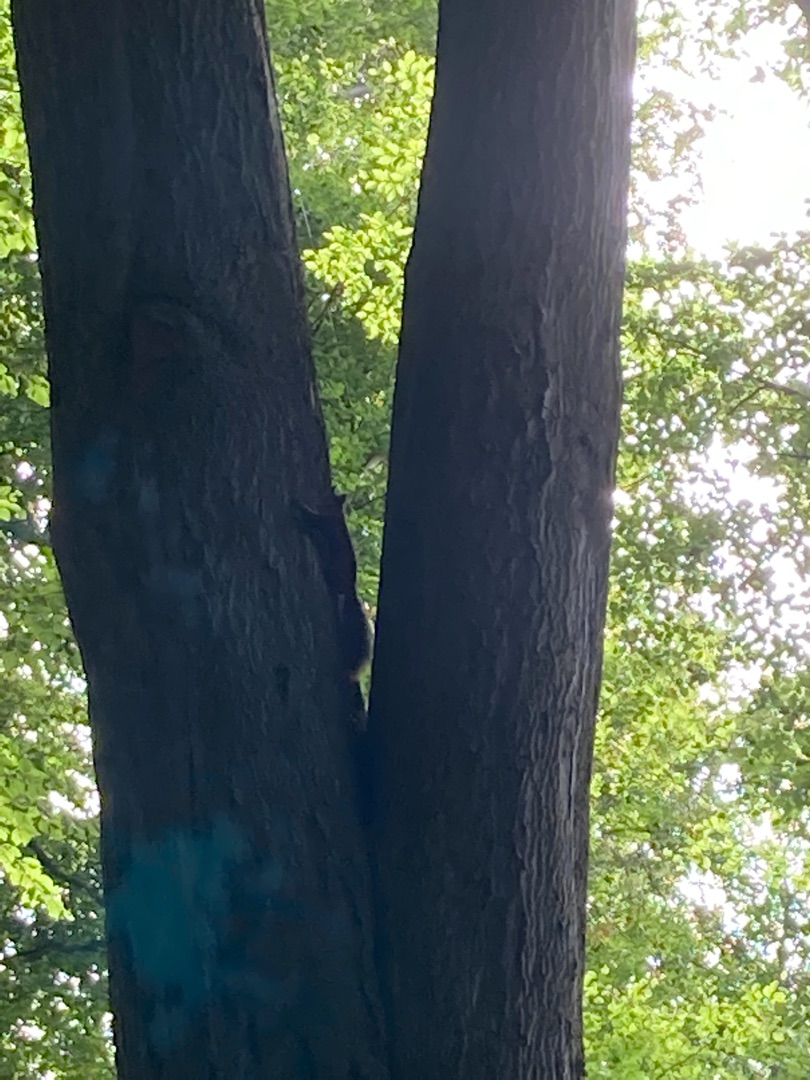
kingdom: Animalia
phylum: Chordata
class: Mammalia
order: Rodentia
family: Sciuridae
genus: Sciurus
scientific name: Sciurus vulgaris
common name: Egern
